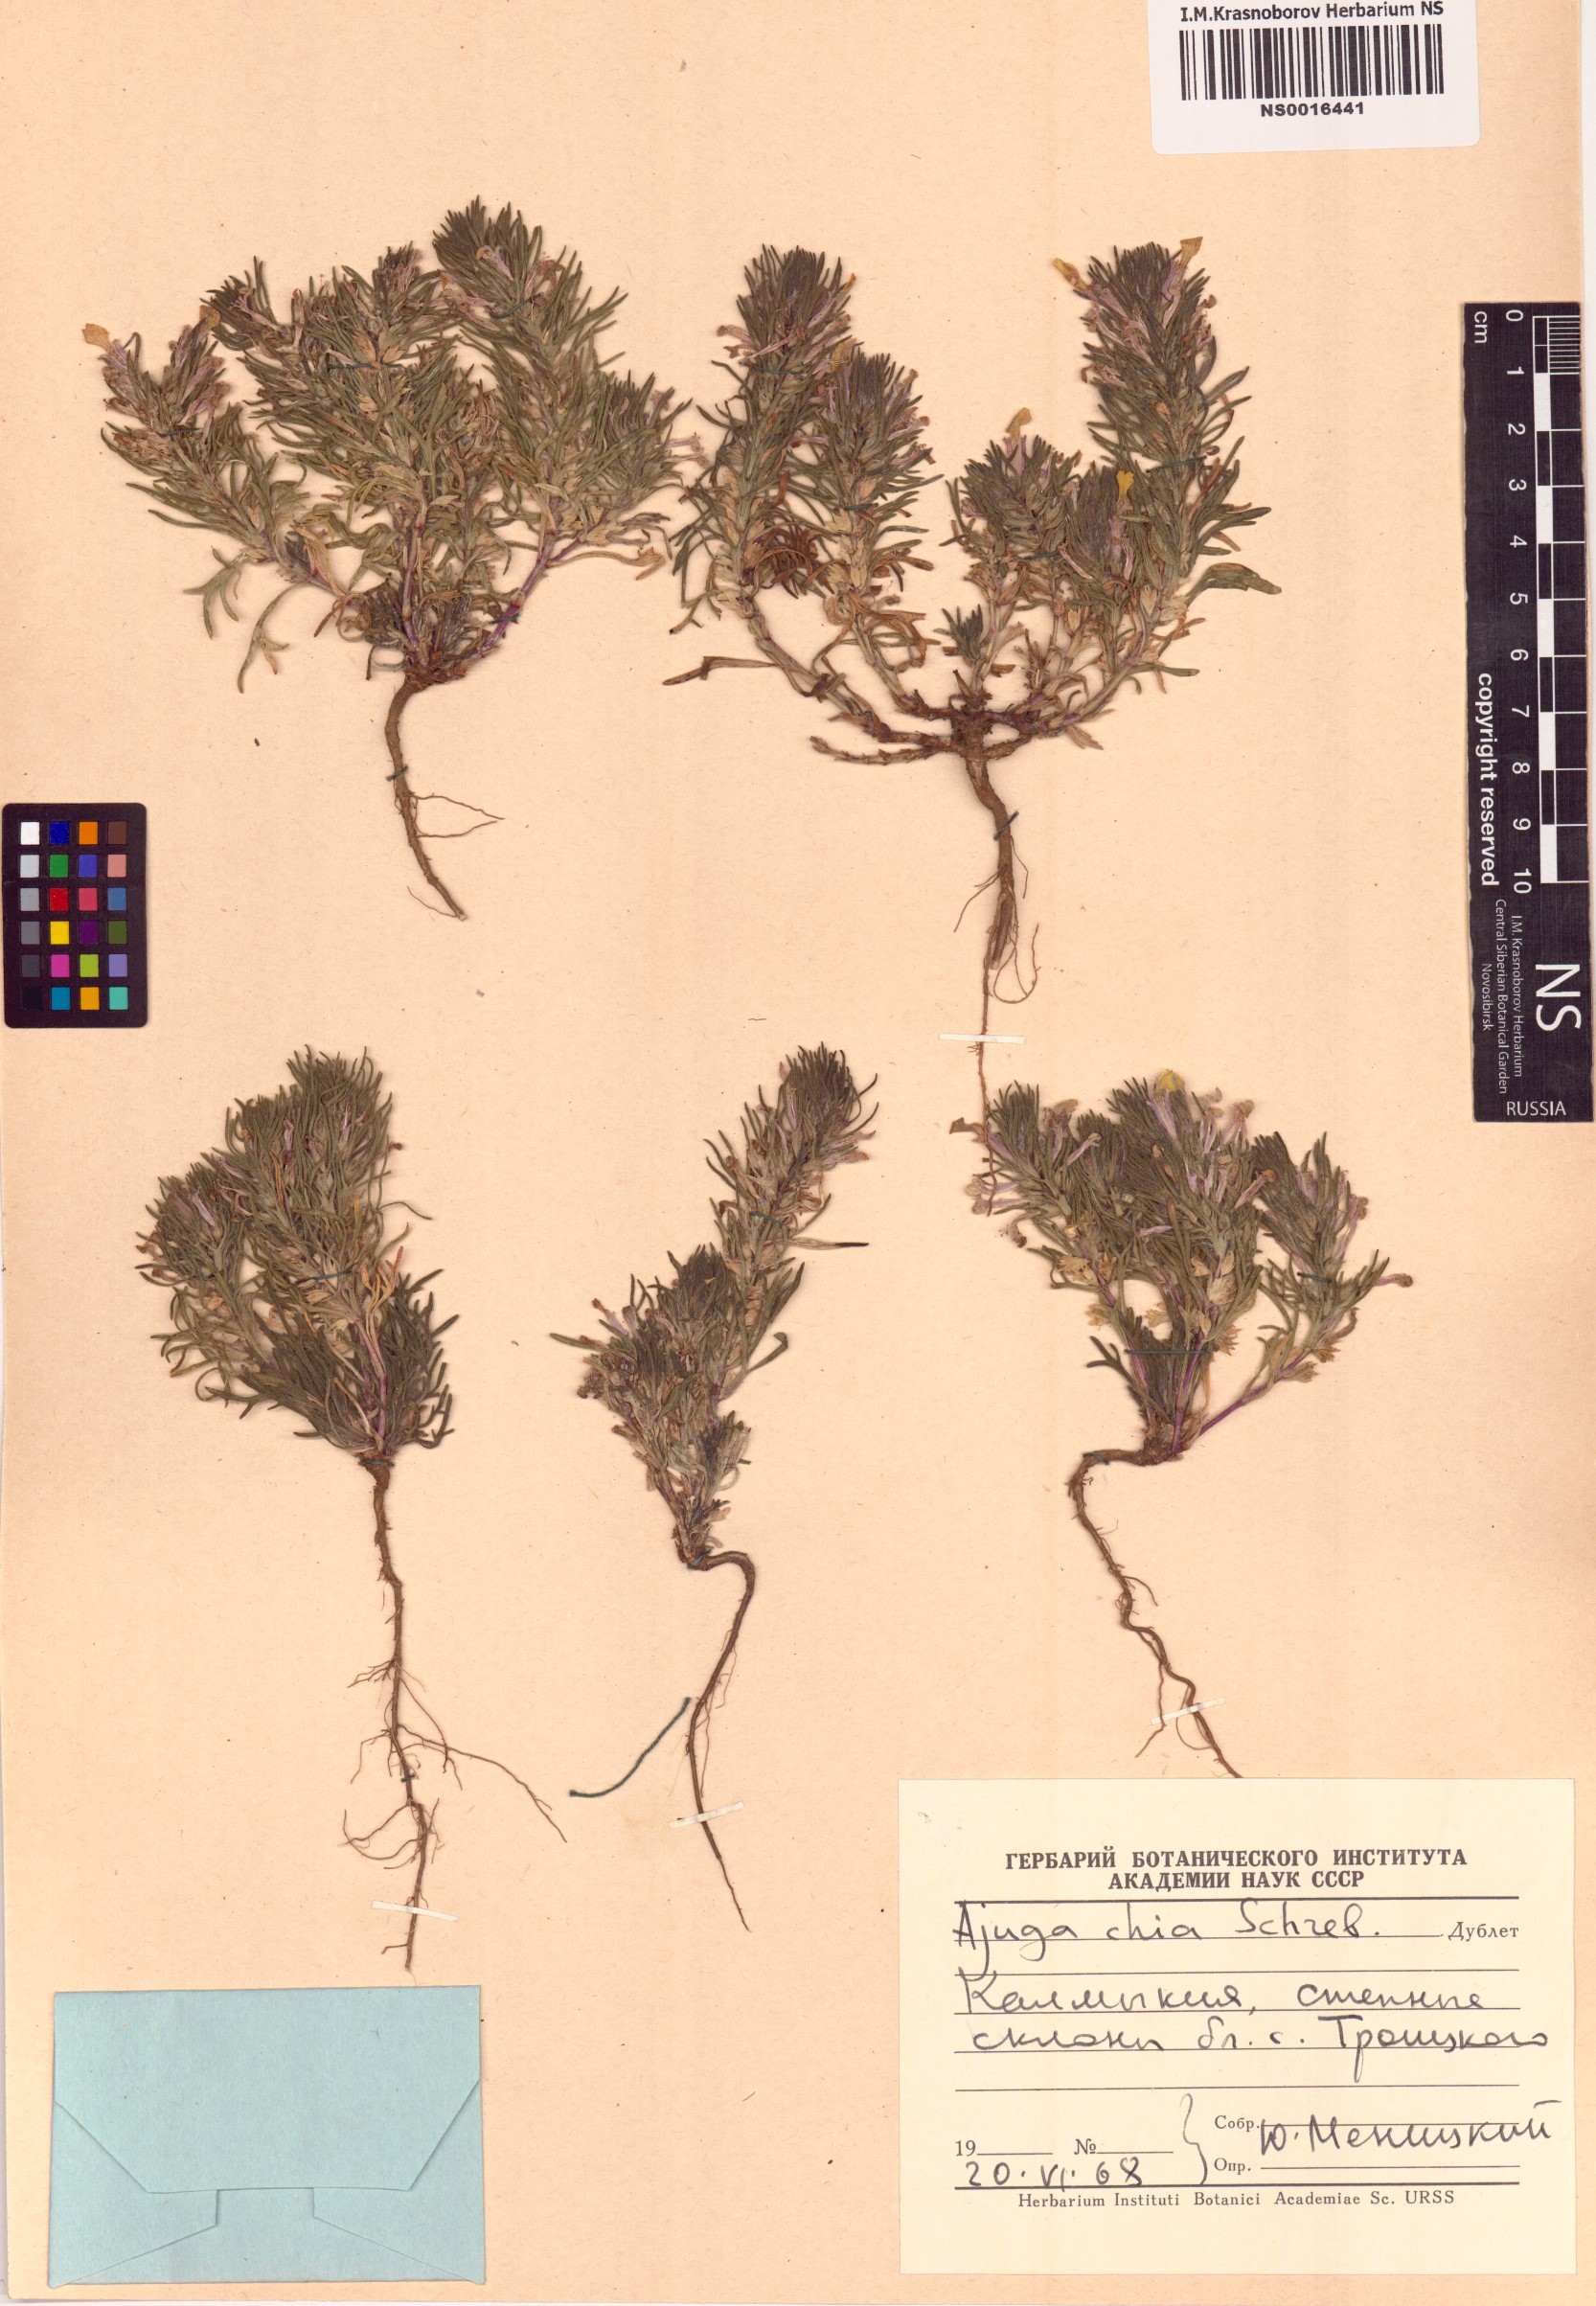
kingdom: Plantae
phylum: Tracheophyta
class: Magnoliopsida
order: Lamiales
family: Lamiaceae
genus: Ajuga
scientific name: Ajuga chamaepitys
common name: Ground-pine
